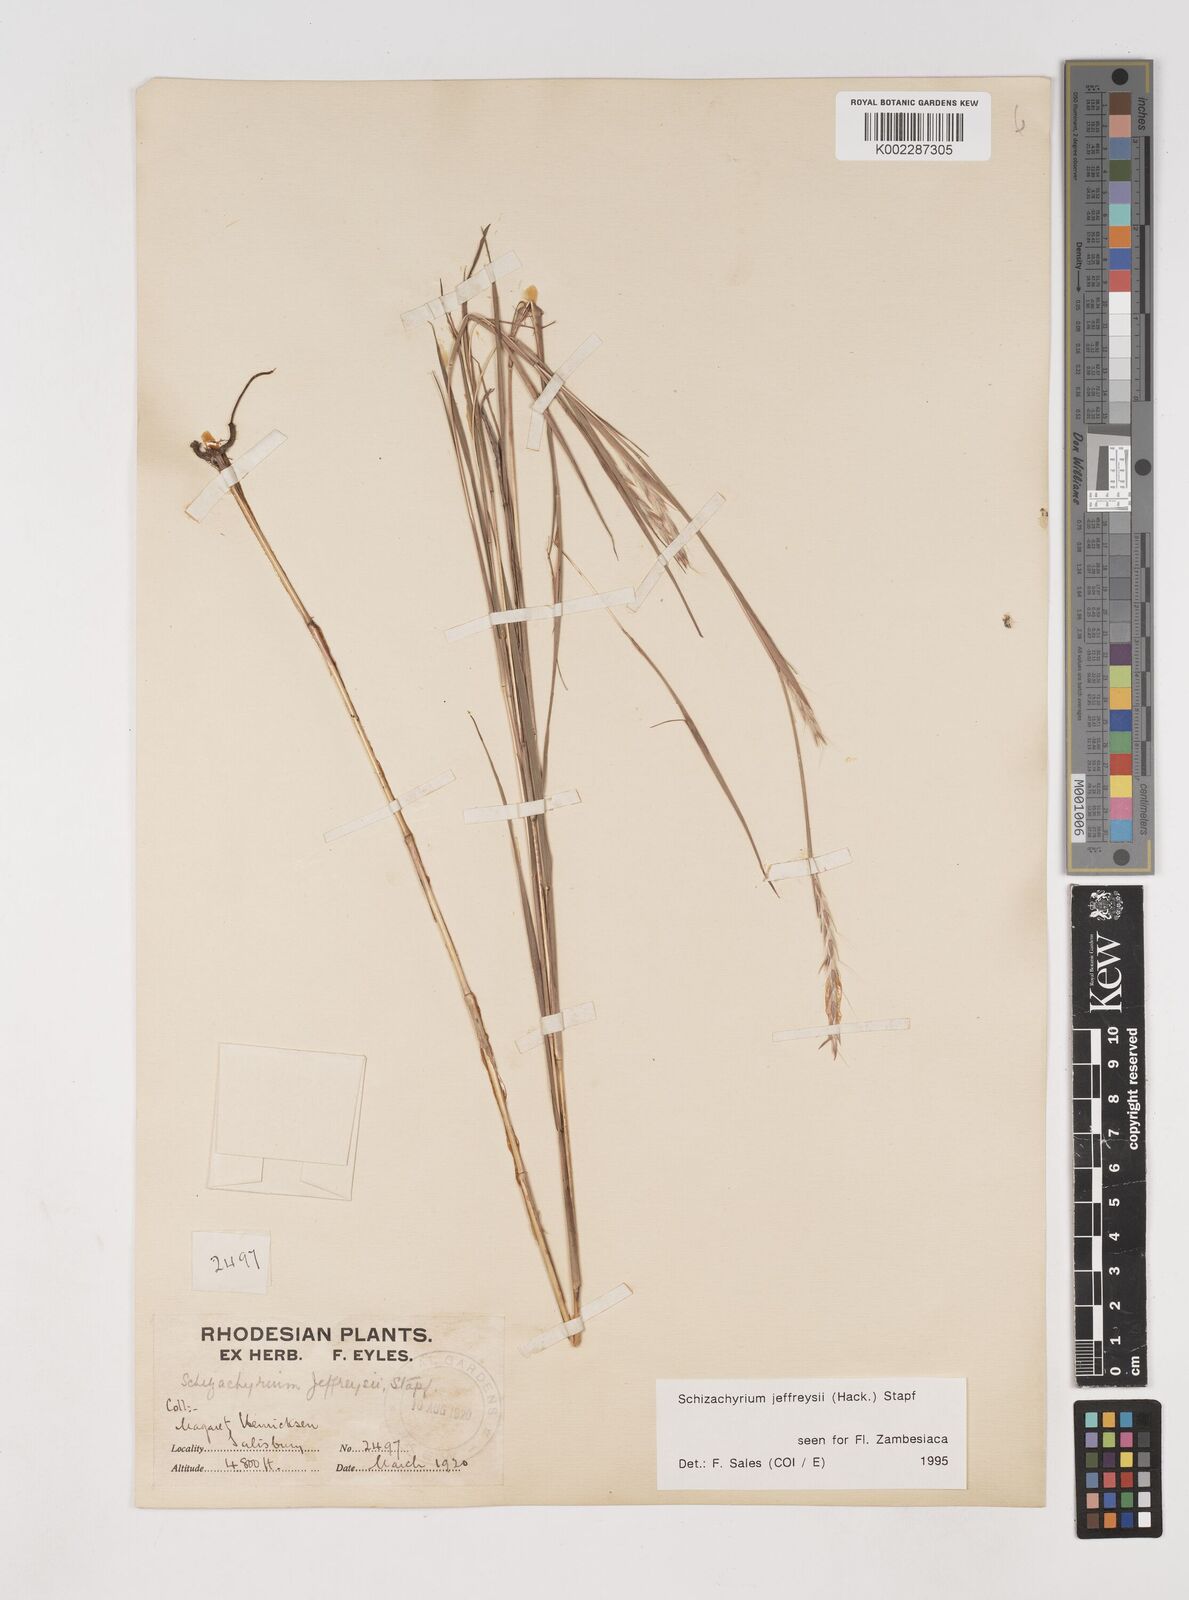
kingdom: Plantae
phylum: Tracheophyta
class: Liliopsida
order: Poales
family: Poaceae
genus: Schizachyrium
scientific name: Schizachyrium jeffreysii
